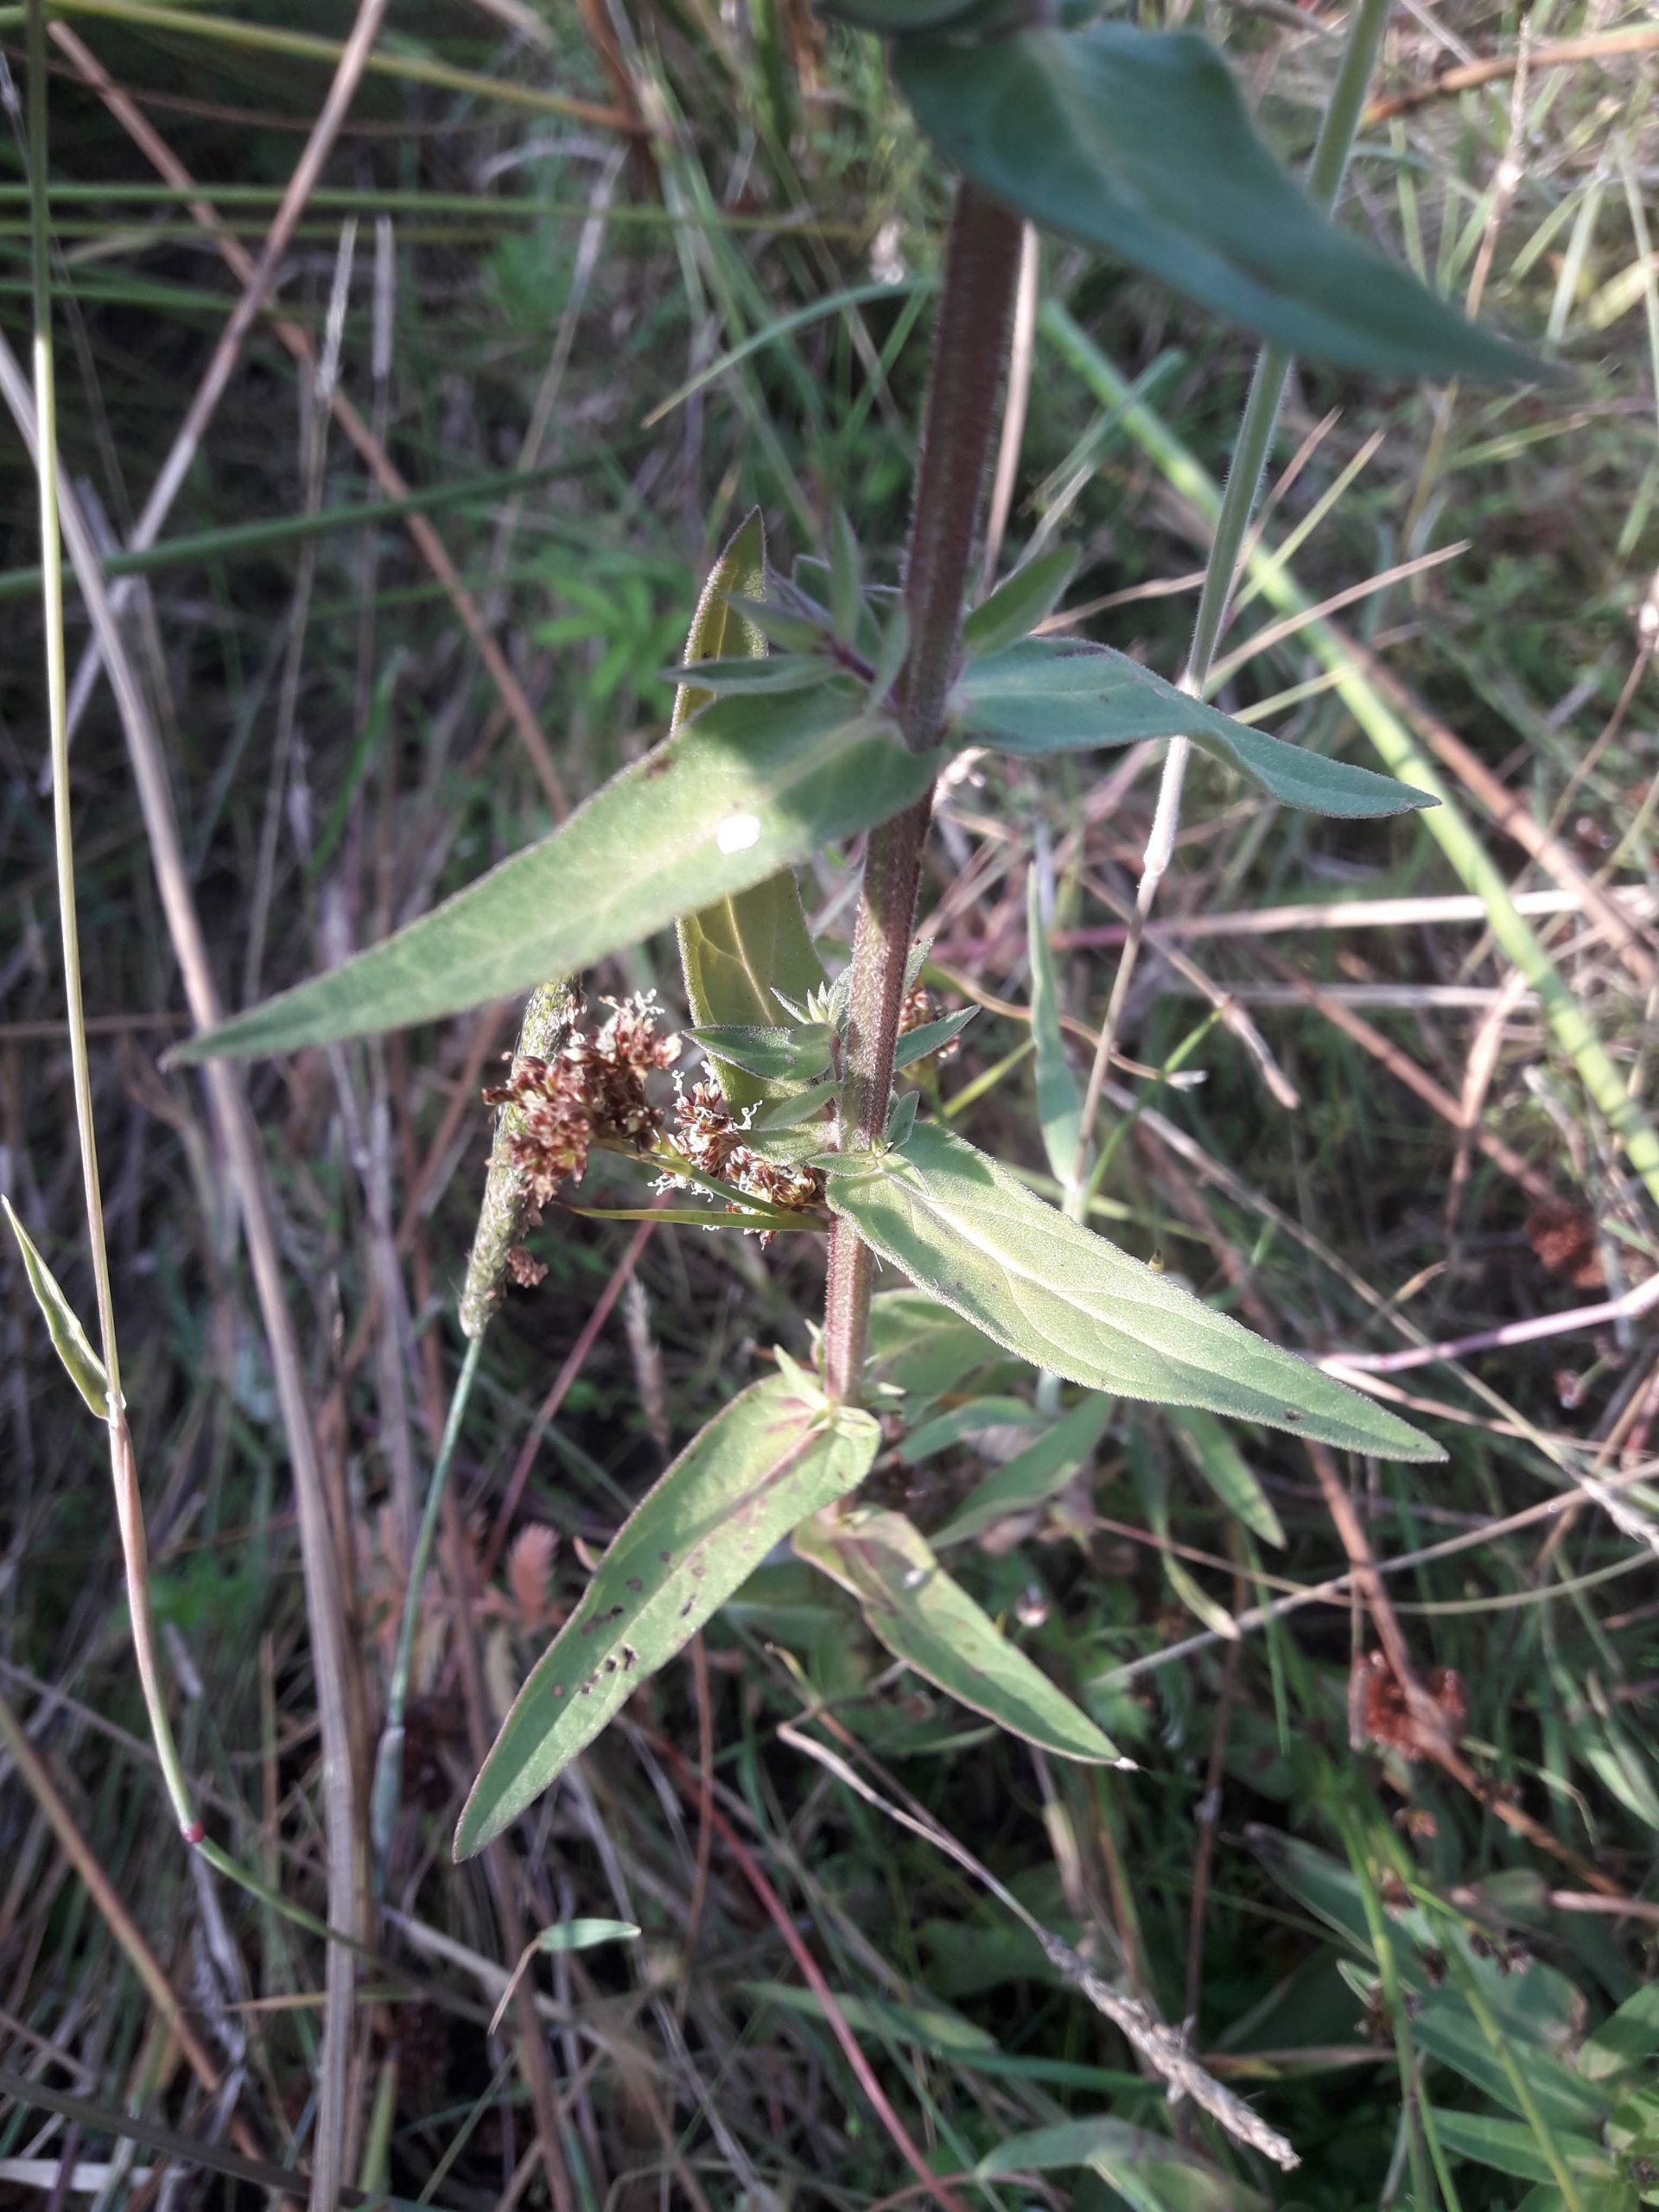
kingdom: Plantae
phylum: Tracheophyta
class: Magnoliopsida
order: Myrtales
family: Lythraceae
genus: Lythrum
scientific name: Lythrum salicaria
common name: Kattehale
